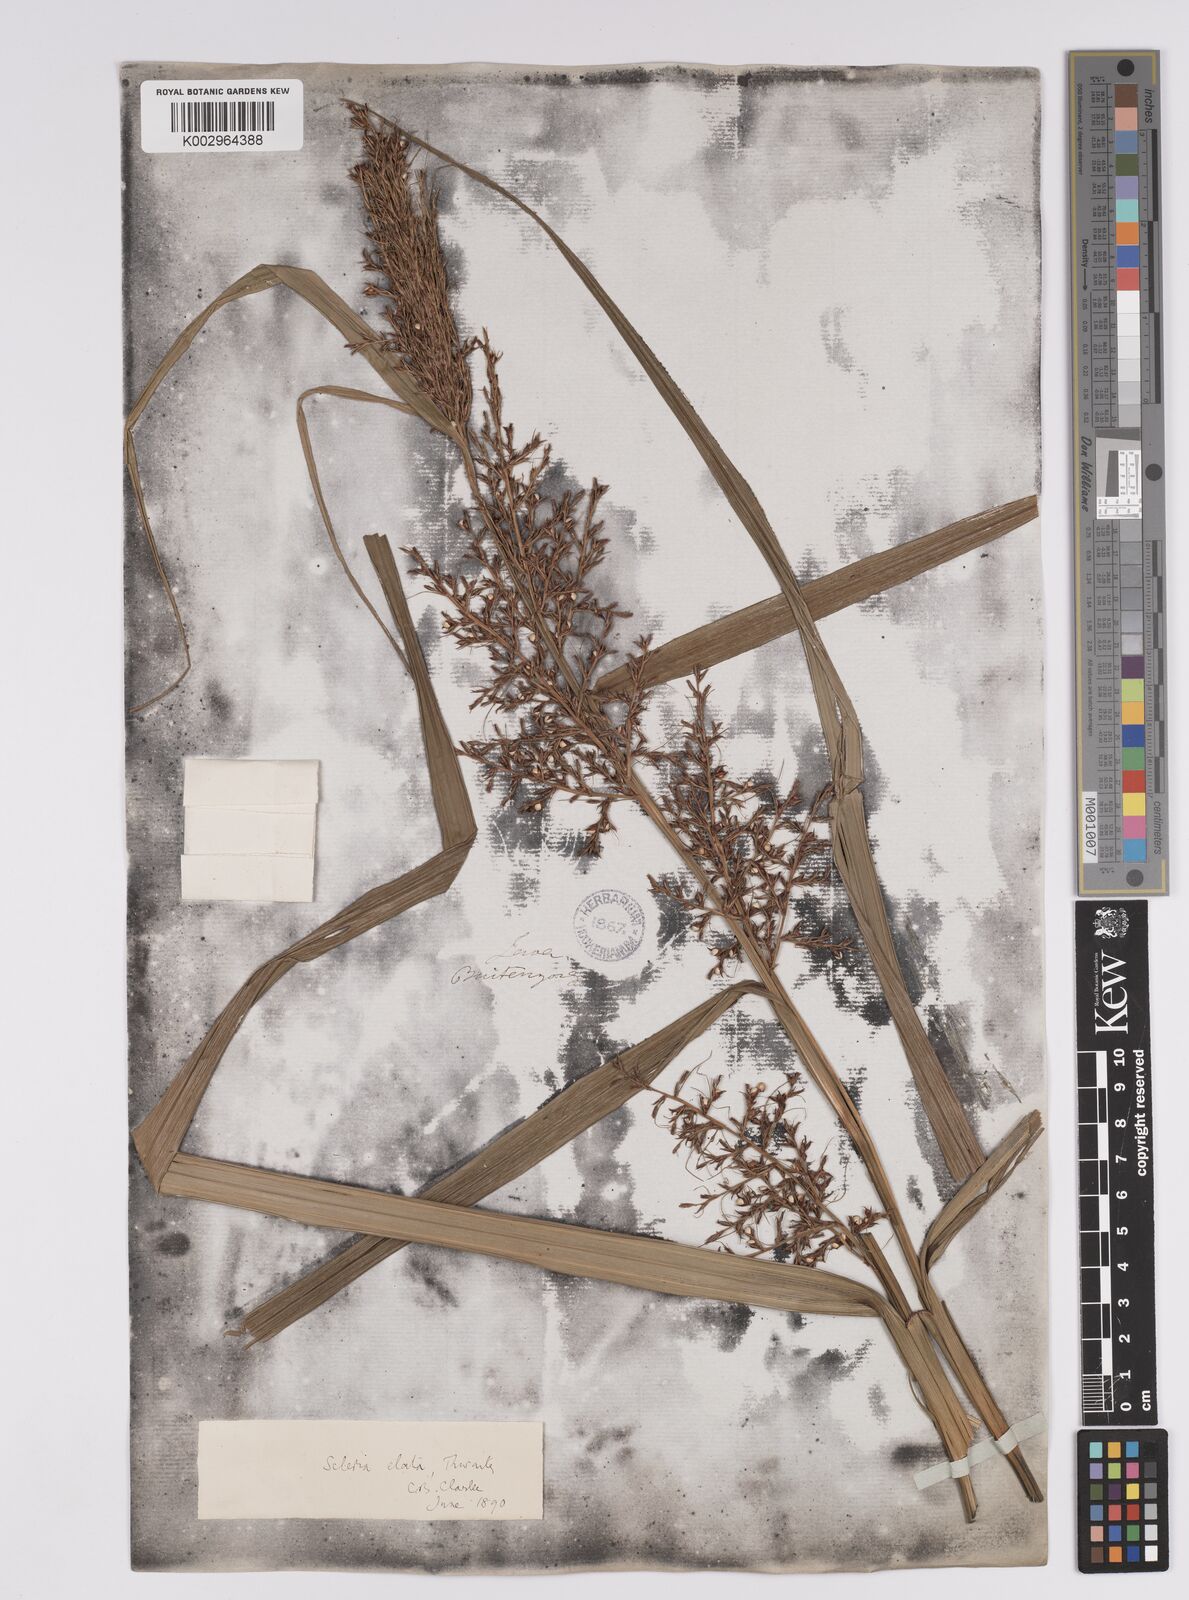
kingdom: Plantae
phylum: Tracheophyta
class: Liliopsida
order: Poales
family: Cyperaceae
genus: Scleria
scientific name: Scleria terrestris
